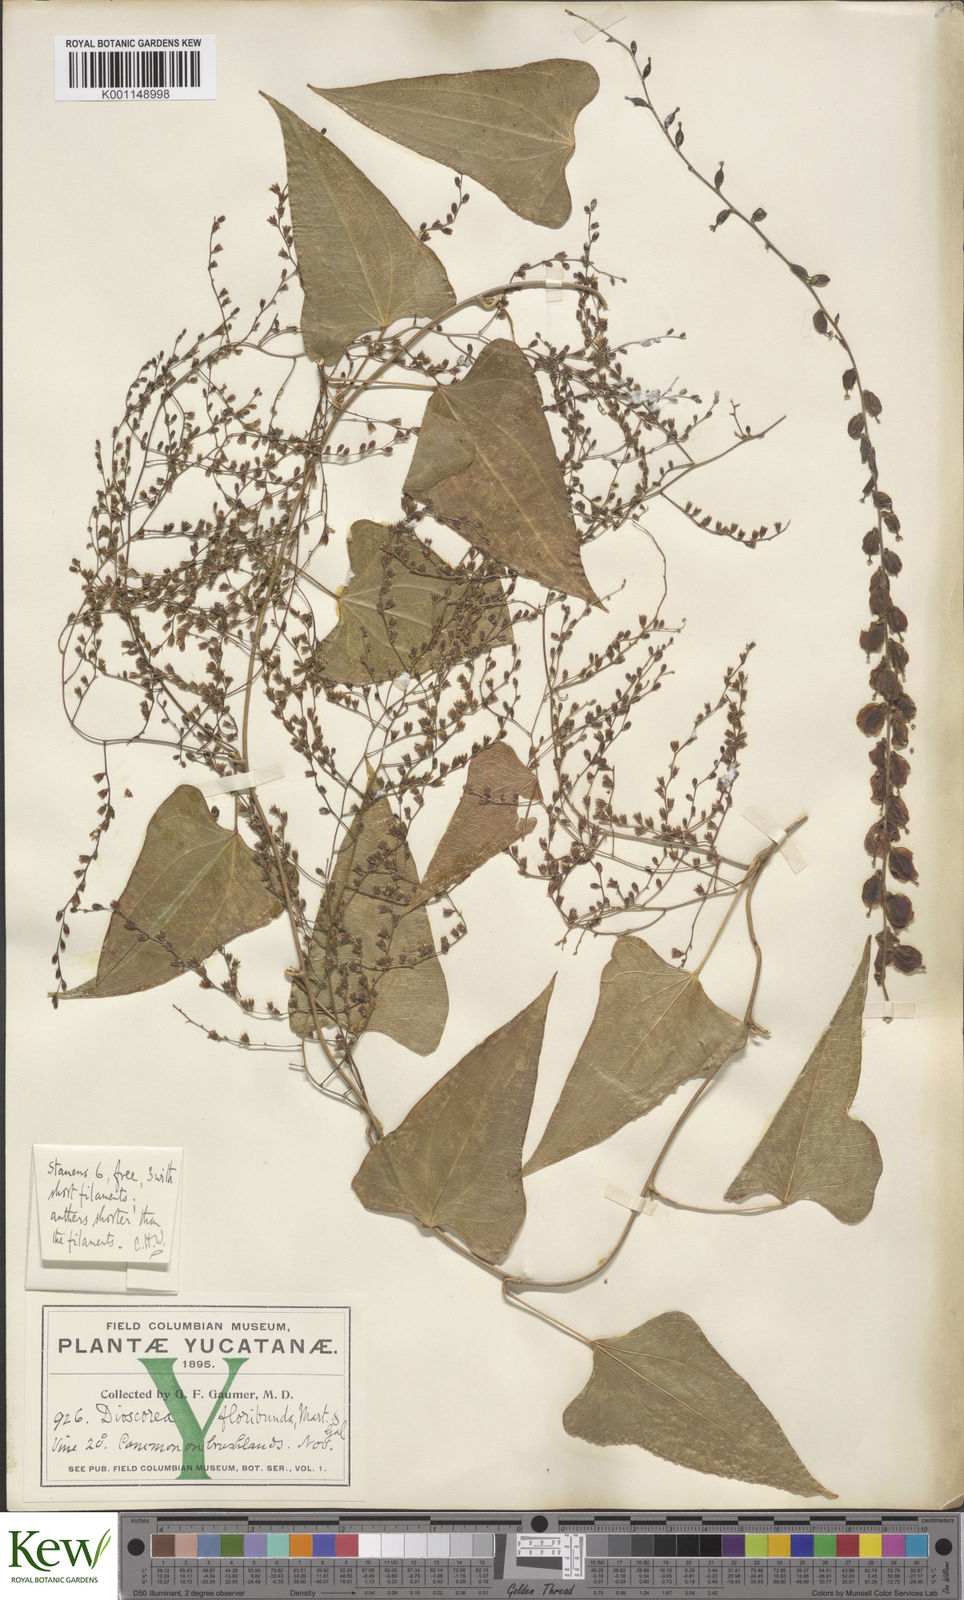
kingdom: Plantae
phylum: Tracheophyta
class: Liliopsida
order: Dioscoreales
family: Dioscoreaceae
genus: Dioscorea
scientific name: Dioscorea floribunda
